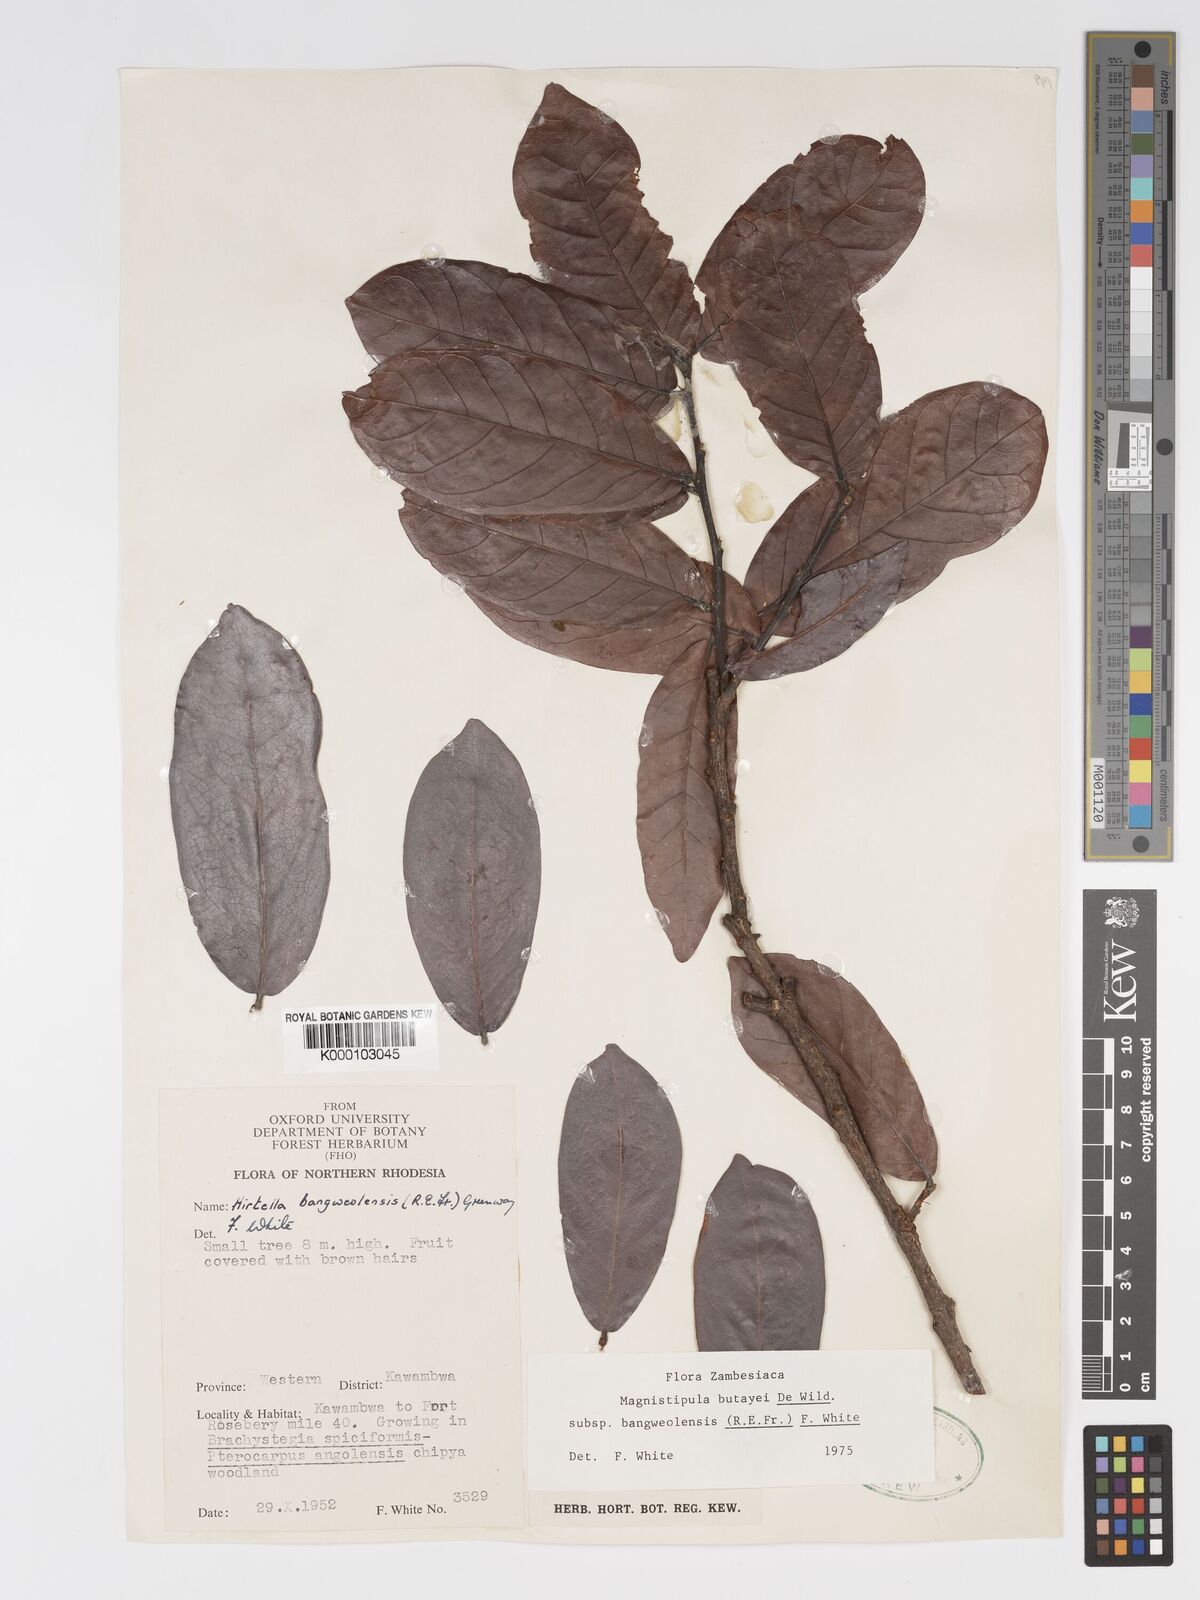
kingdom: Plantae
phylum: Tracheophyta
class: Magnoliopsida
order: Malpighiales
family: Chrysobalanaceae
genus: Magnistipula
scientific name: Magnistipula butayei
